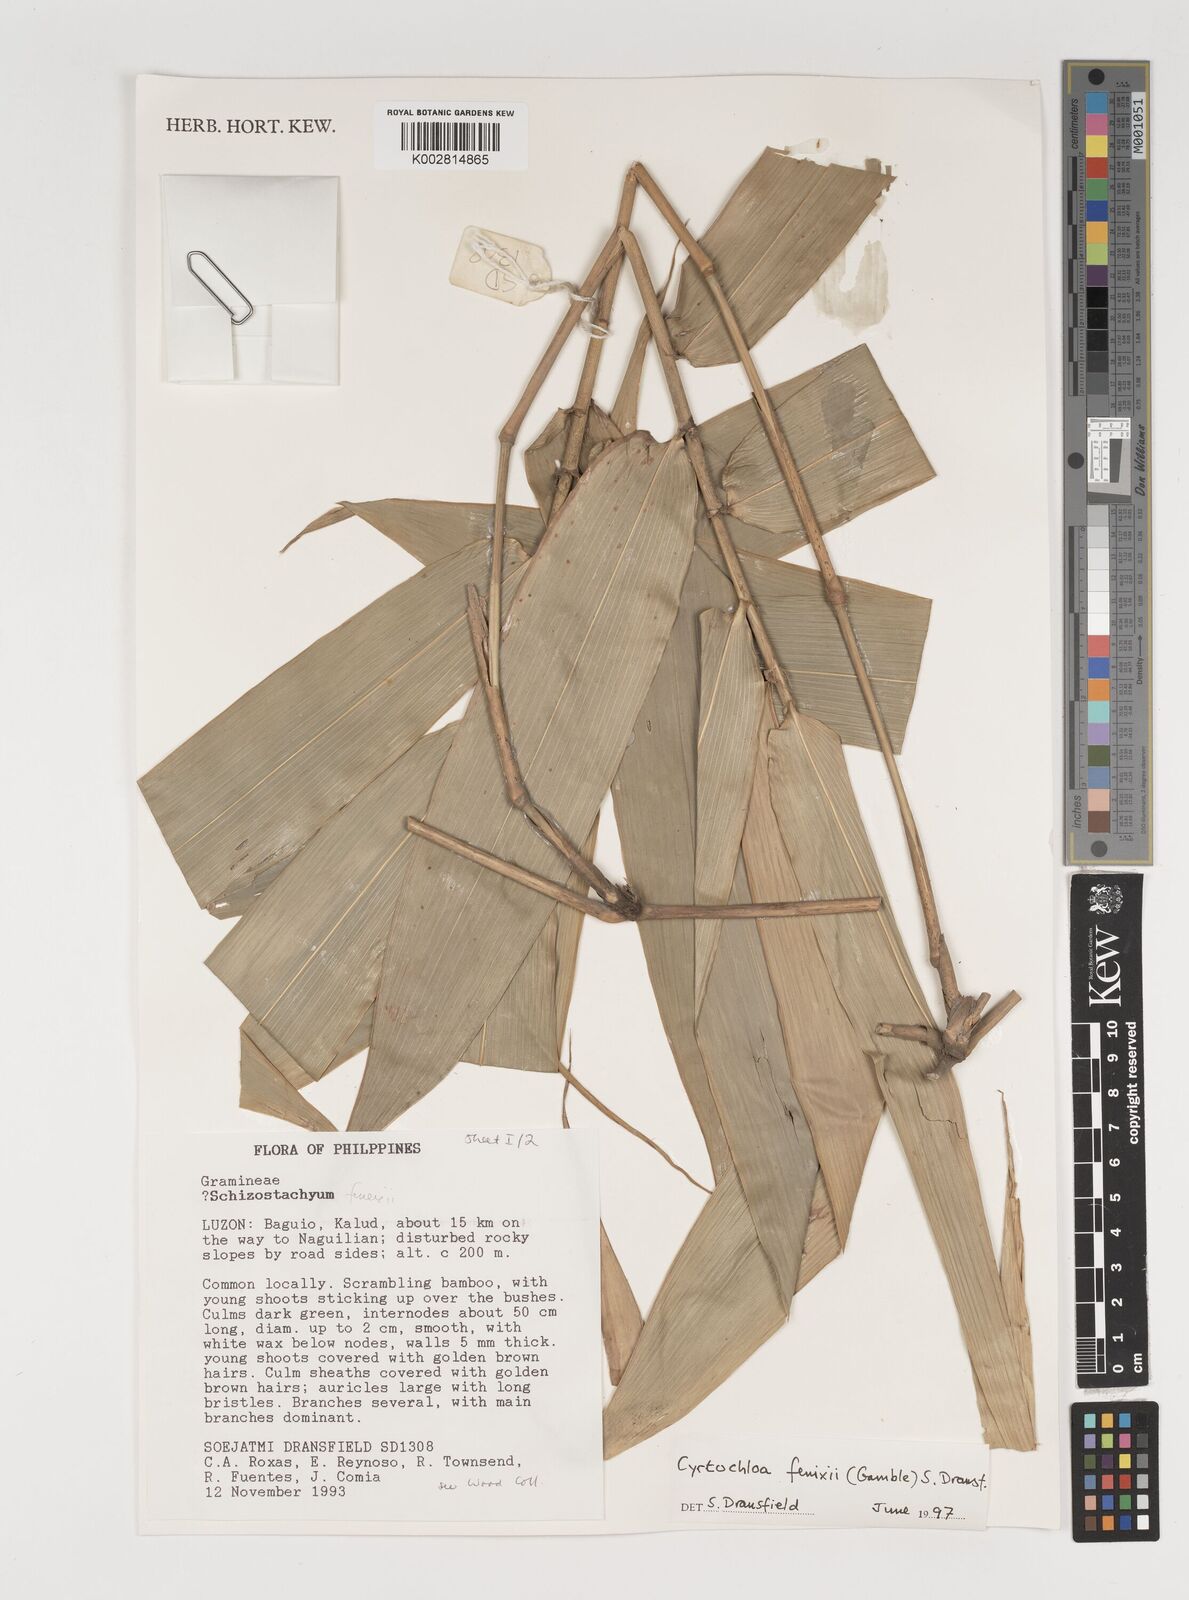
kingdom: Plantae
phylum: Tracheophyta
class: Liliopsida
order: Poales
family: Poaceae
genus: Cyrtochloa
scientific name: Cyrtochloa fenixii
